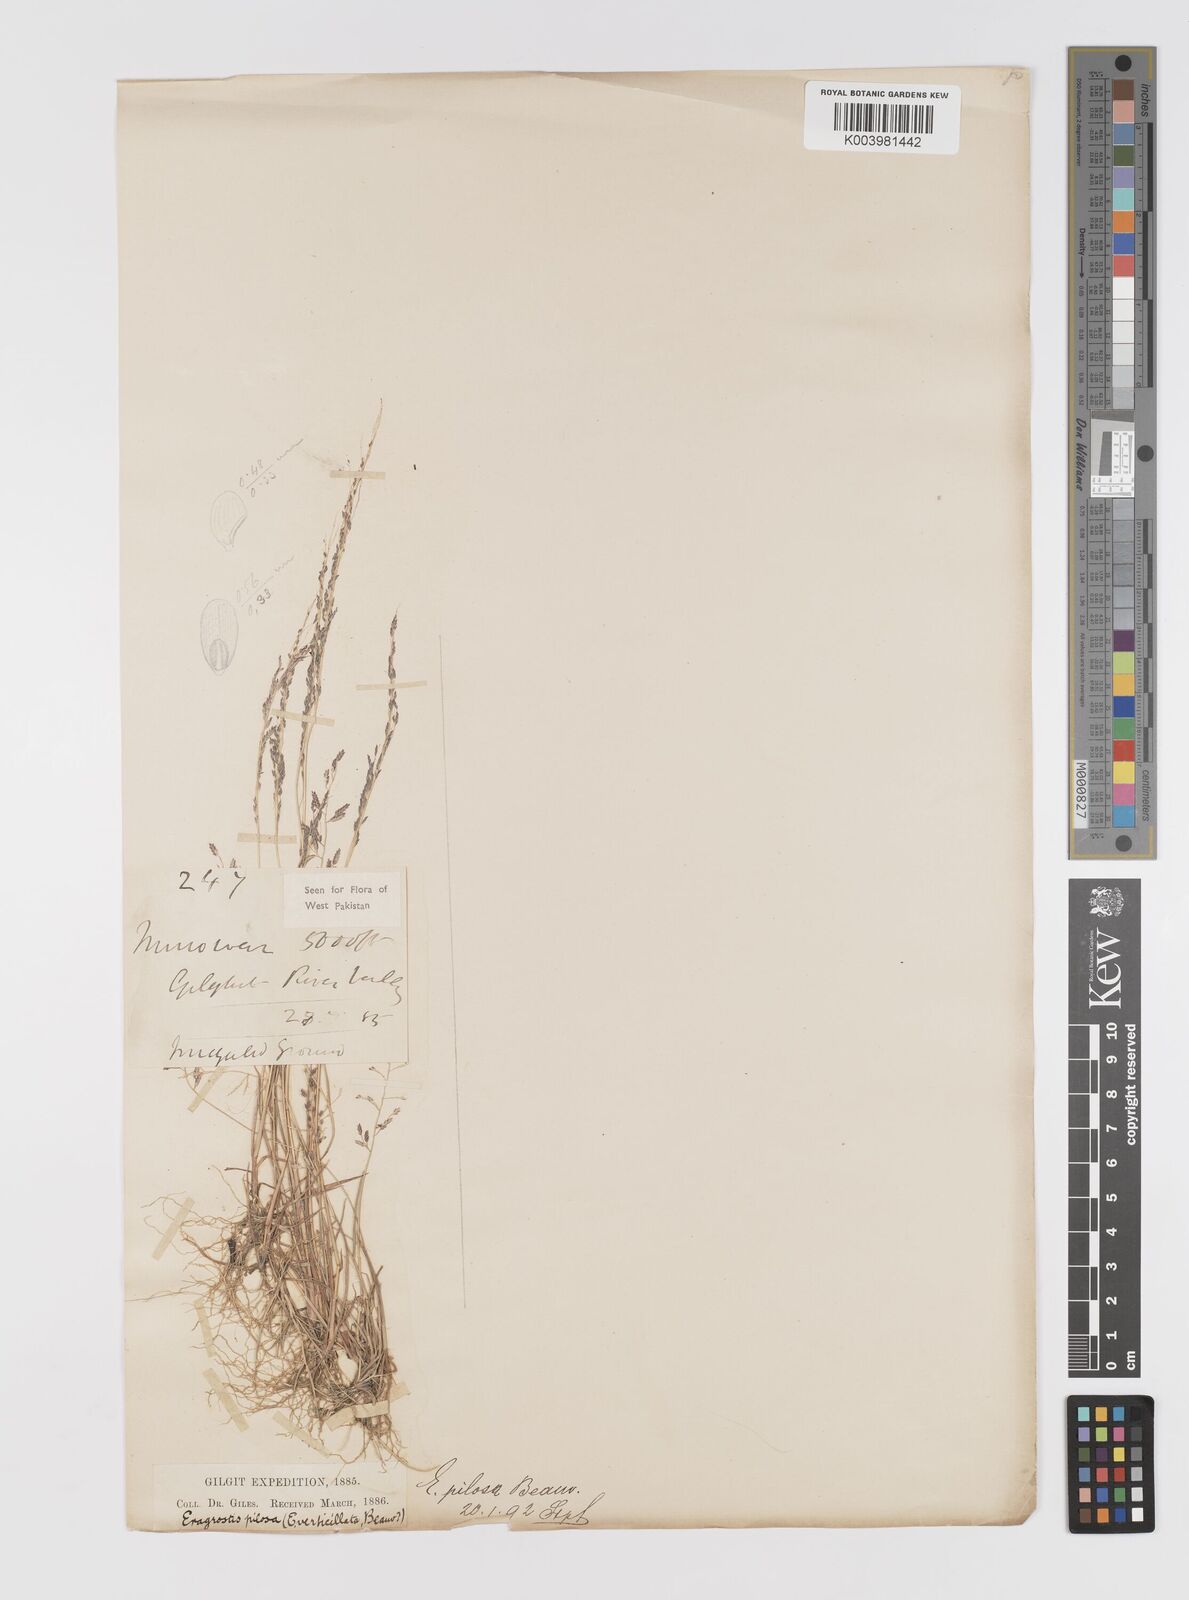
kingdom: Plantae
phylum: Tracheophyta
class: Liliopsida
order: Poales
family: Poaceae
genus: Eragrostis
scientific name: Eragrostis pilosa
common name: Indian lovegrass
